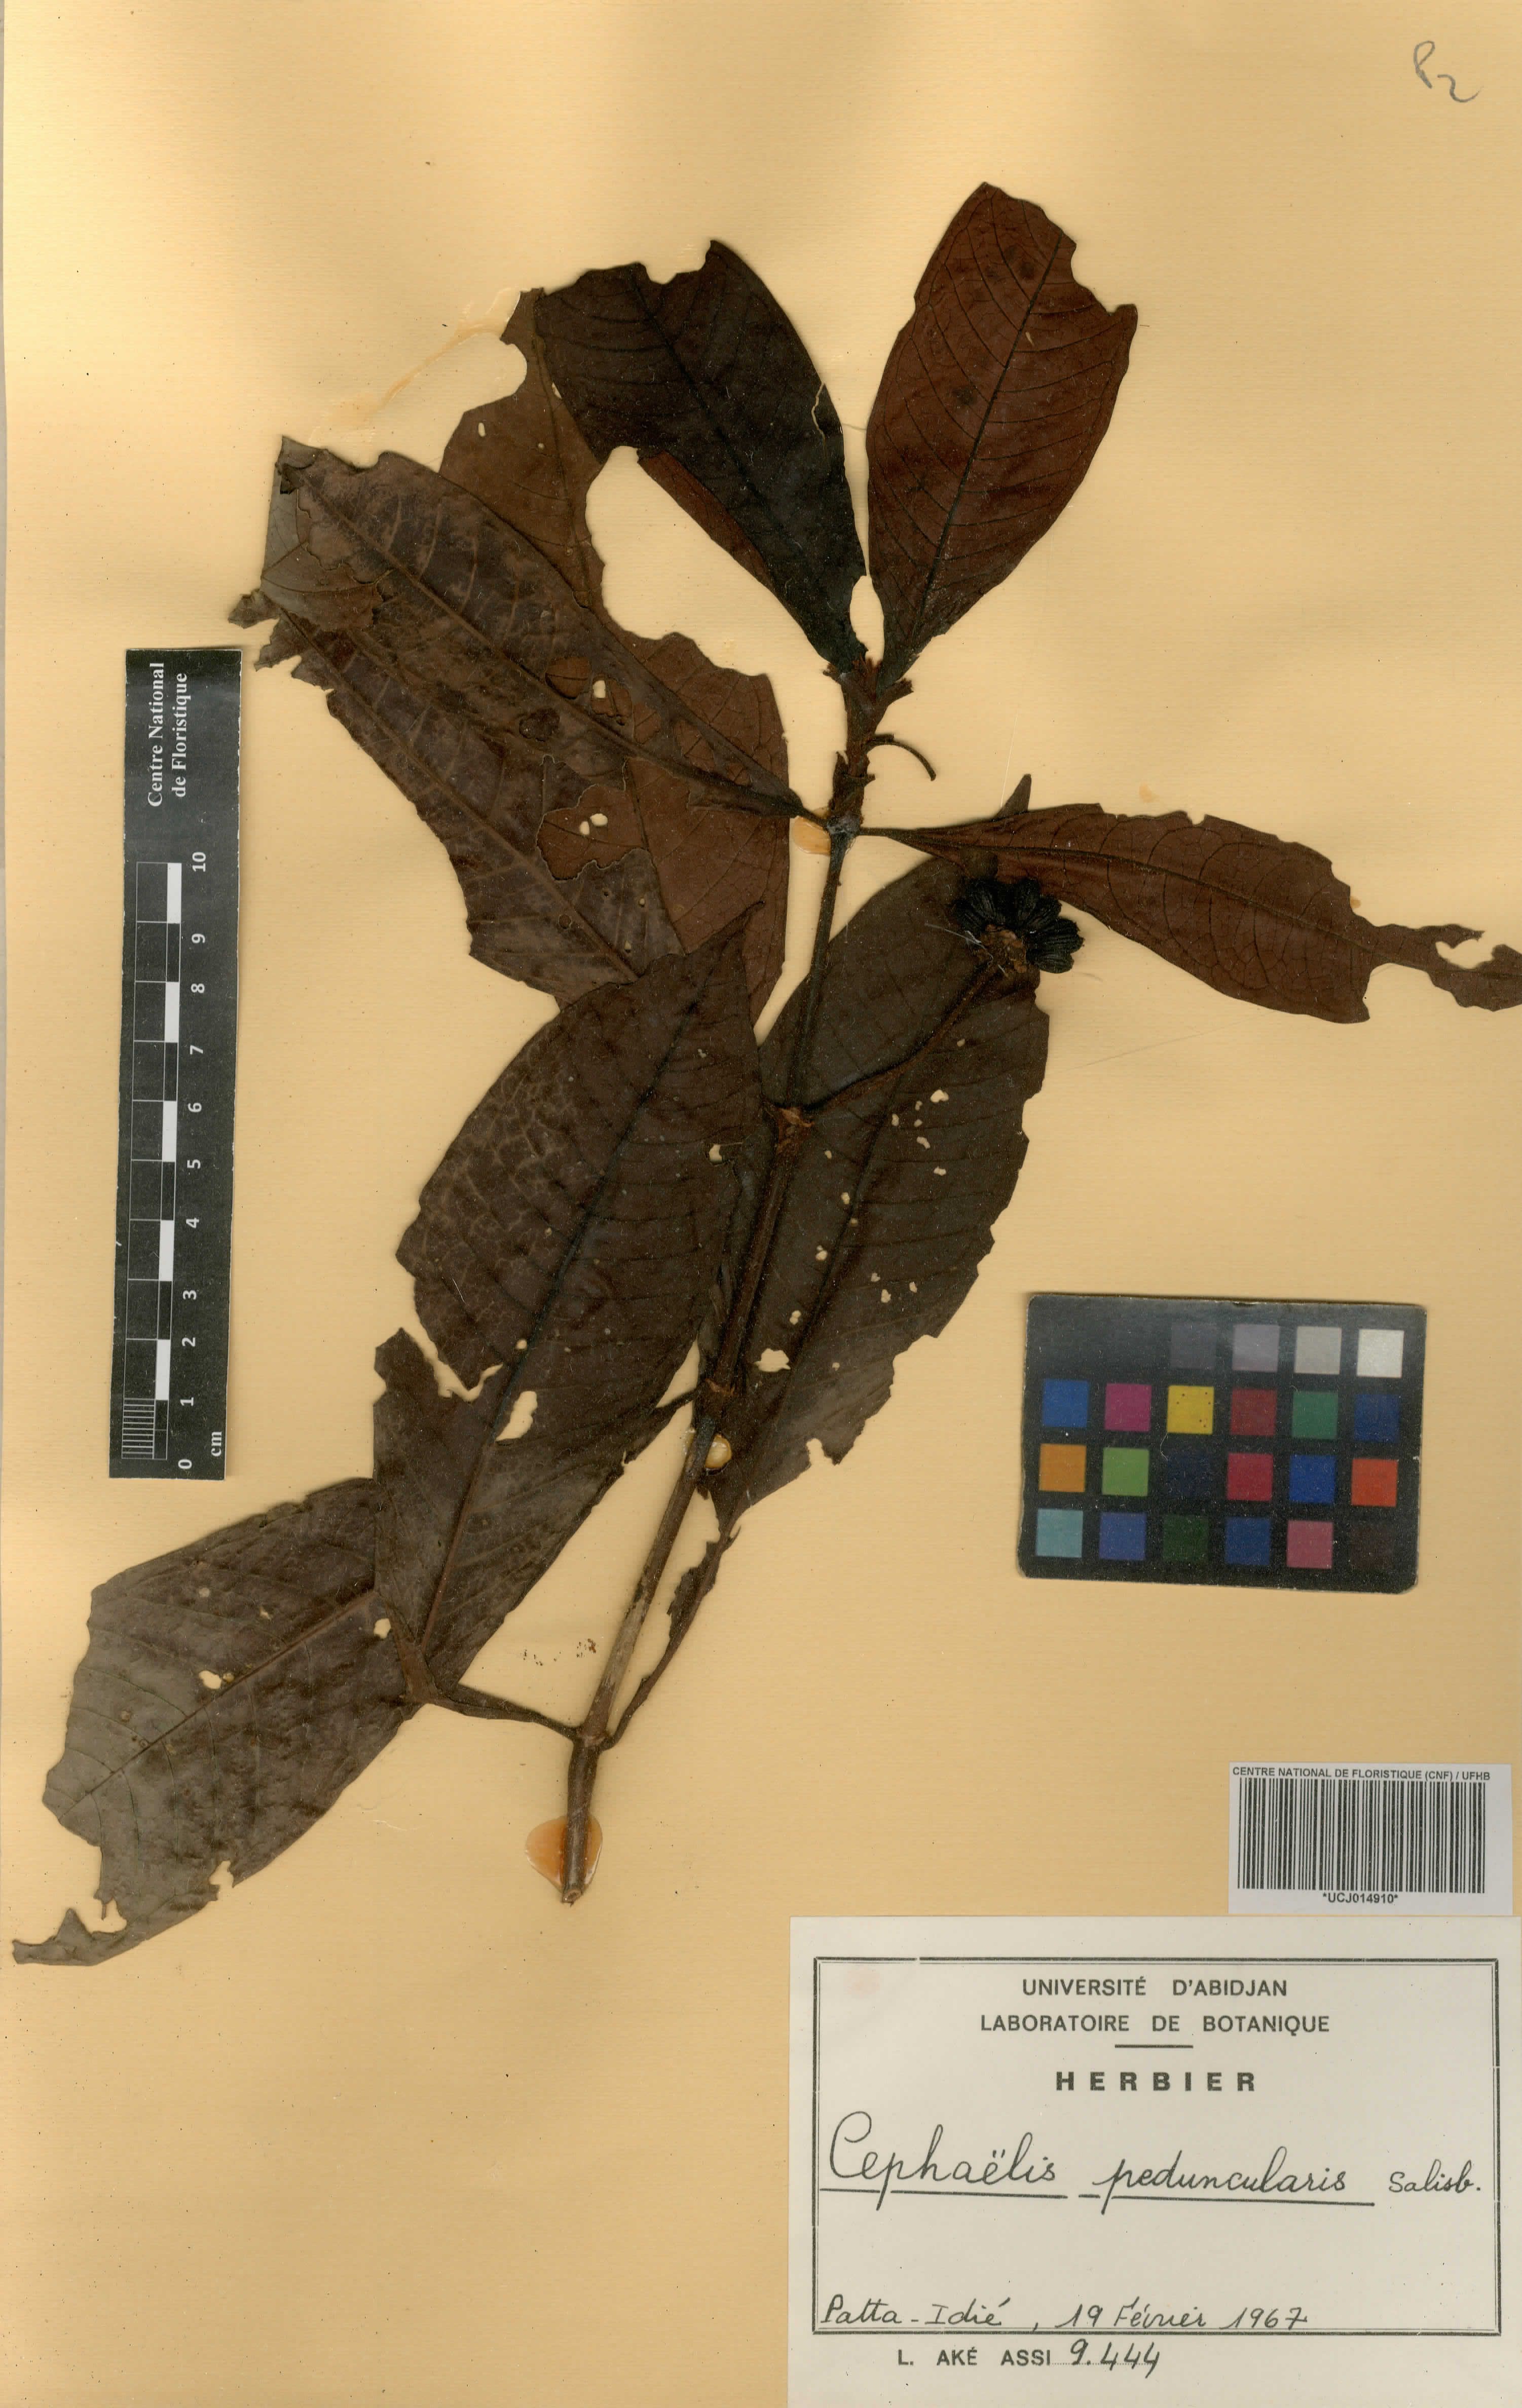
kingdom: Plantae
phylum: Tracheophyta
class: Magnoliopsida
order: Gentianales
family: Rubiaceae
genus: Psychotria
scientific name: Psychotria peduncularis
